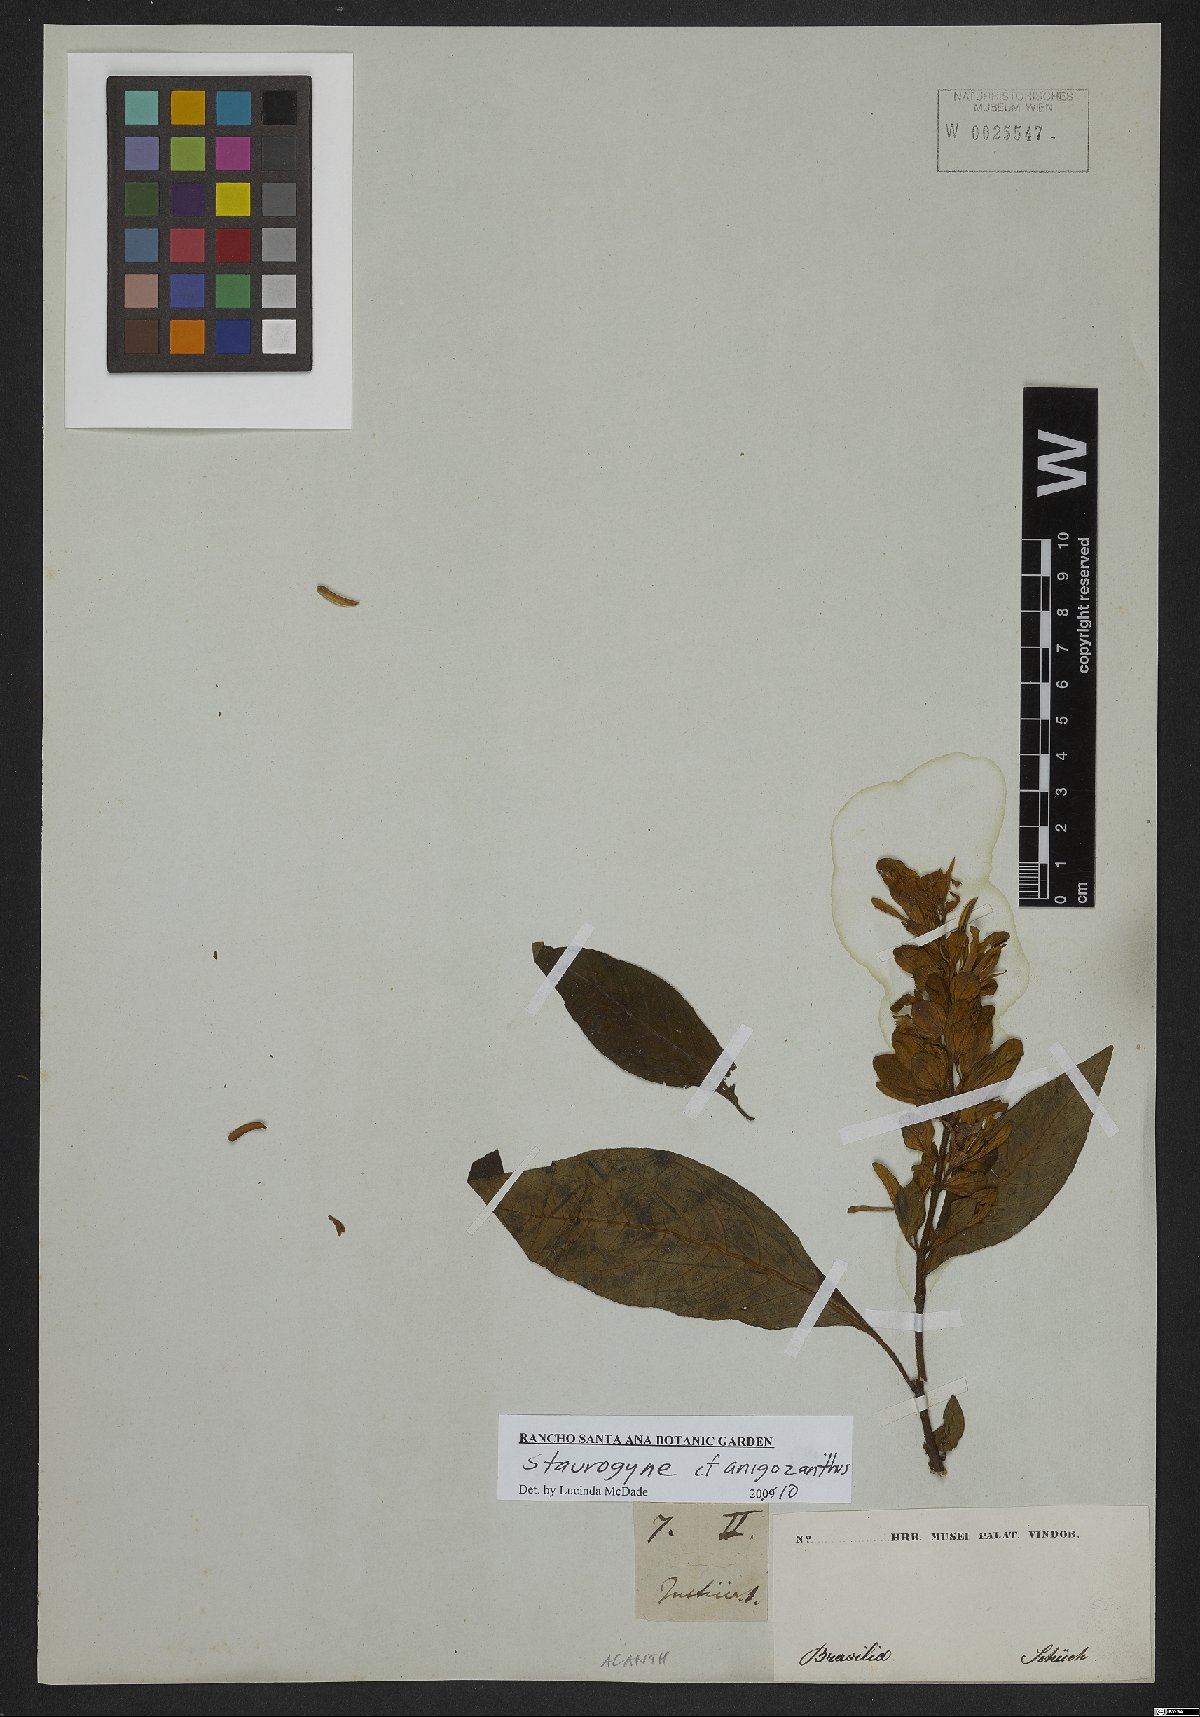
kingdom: Plantae
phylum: Tracheophyta
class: Magnoliopsida
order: Lamiales
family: Acanthaceae
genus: Staurogyne
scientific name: Staurogyne anigozanthus
